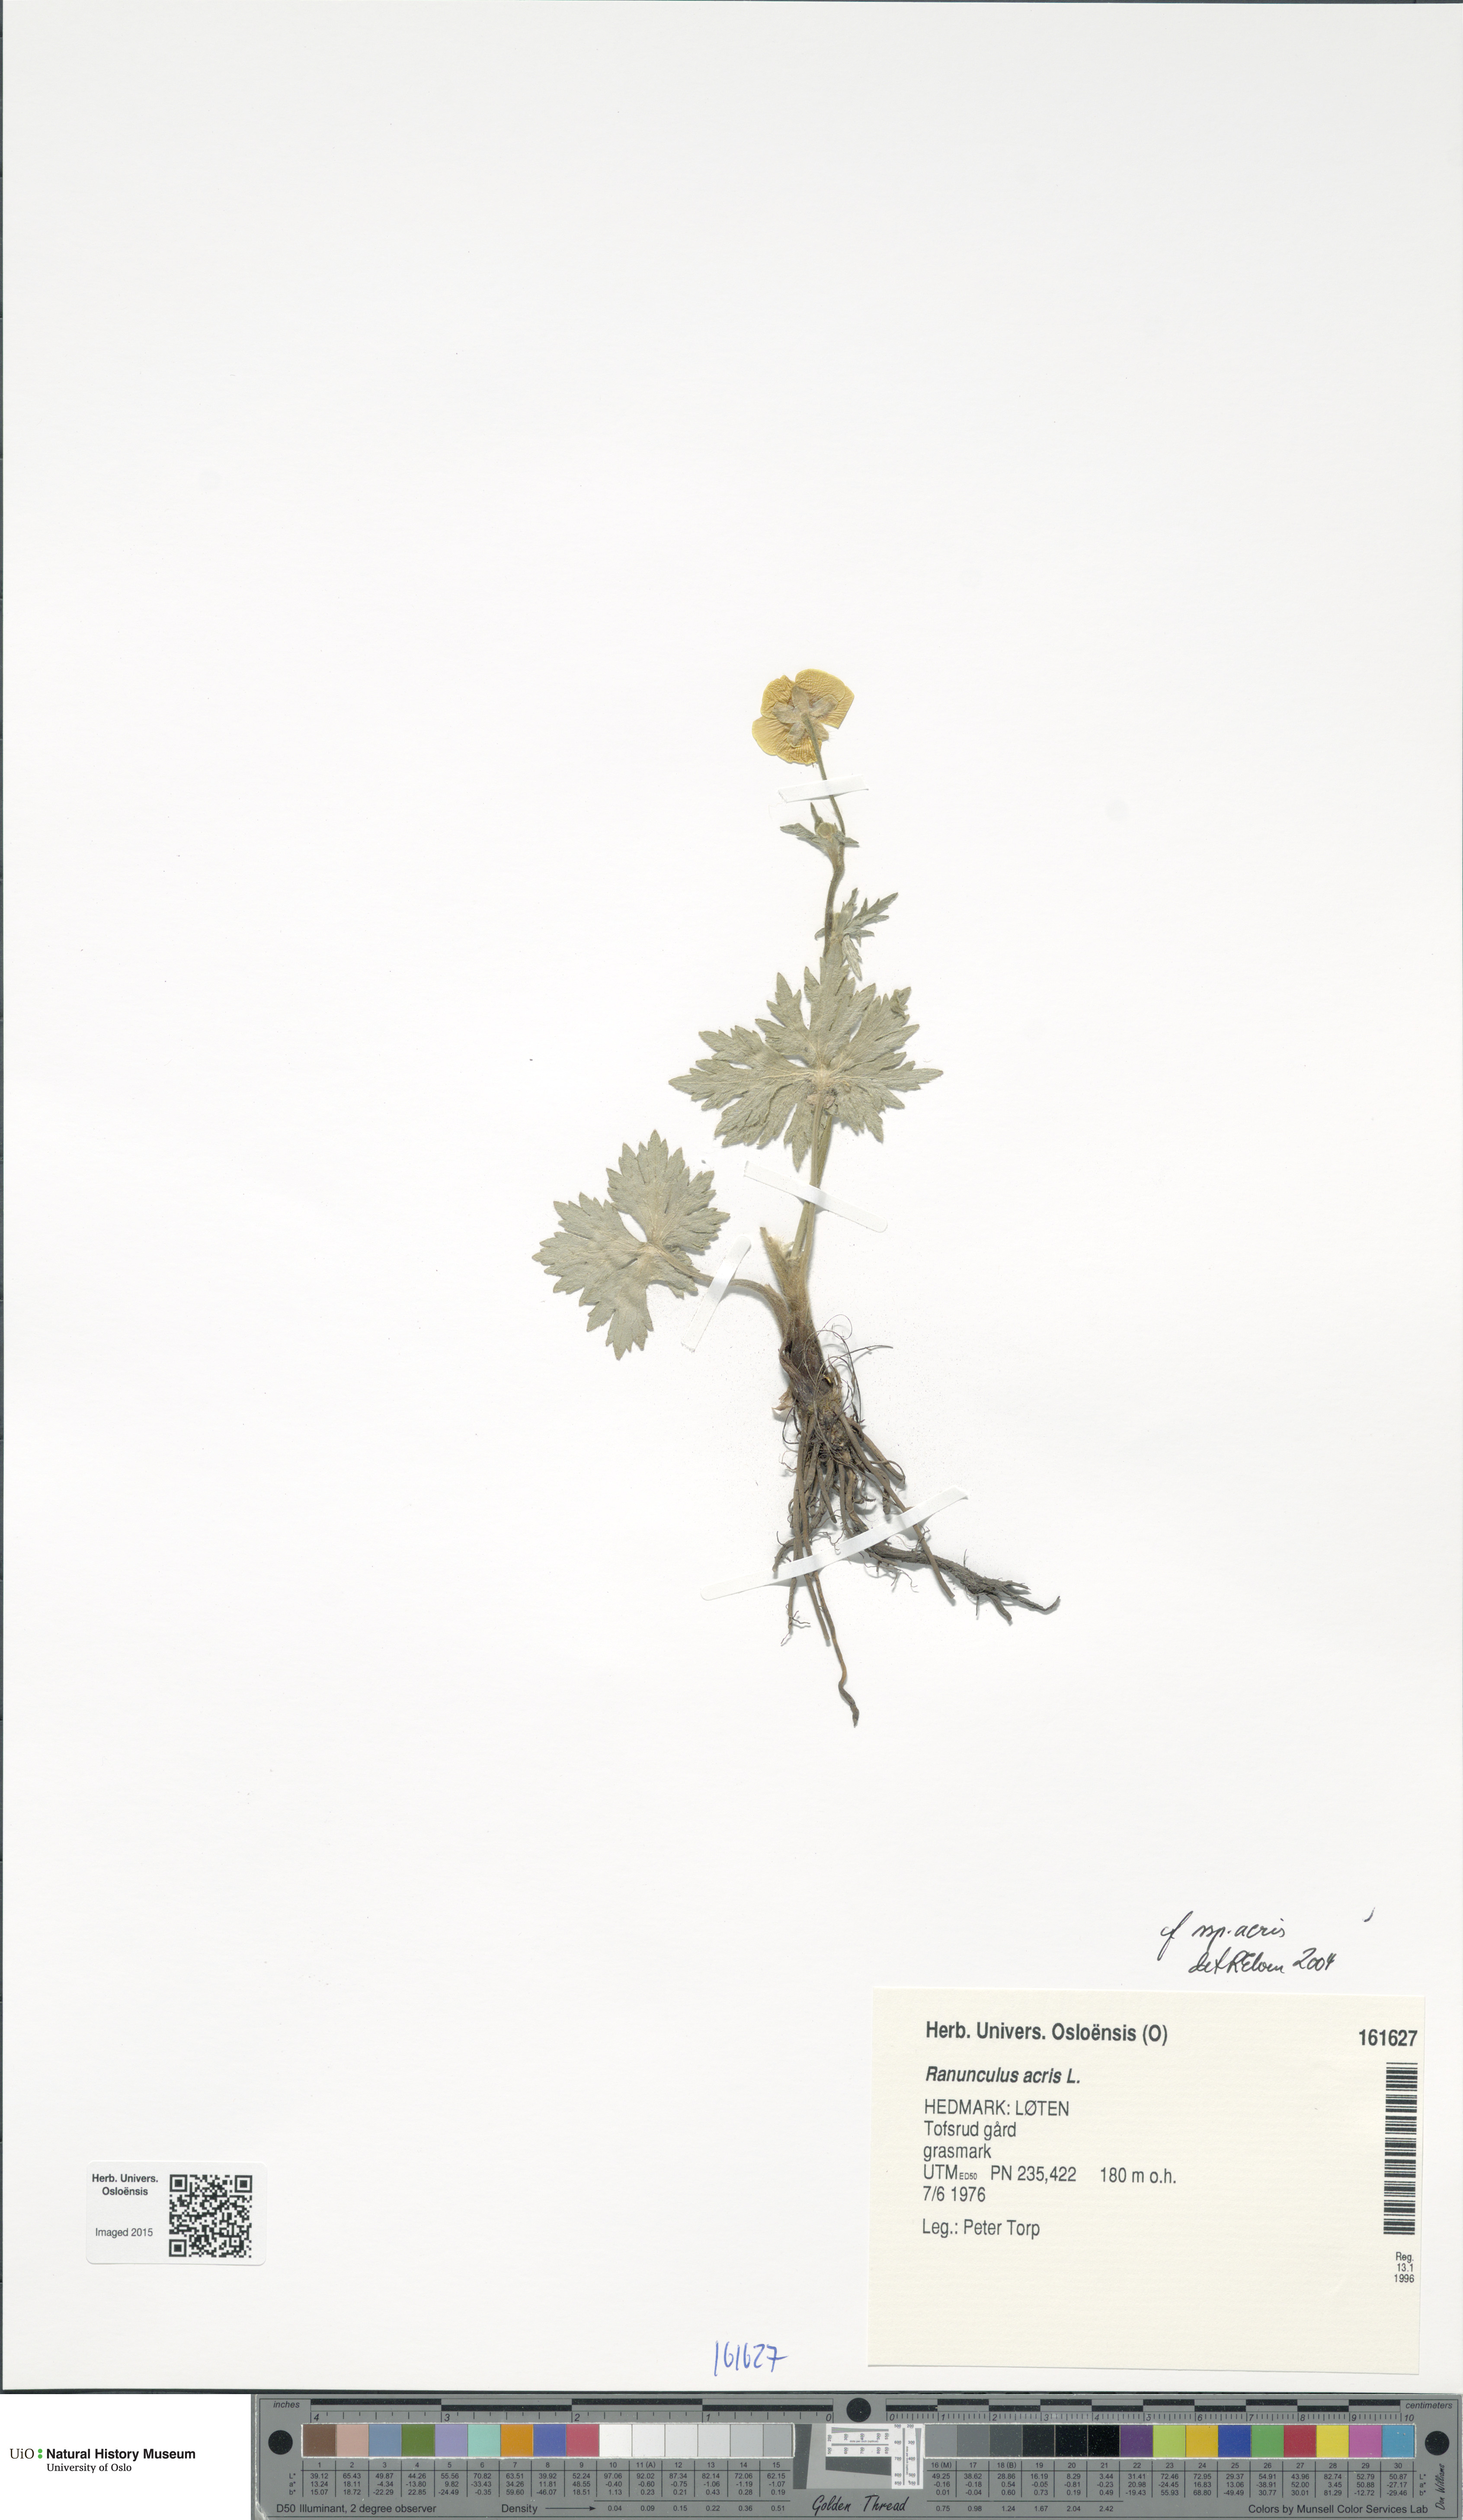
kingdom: Plantae
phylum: Tracheophyta
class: Magnoliopsida
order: Ranunculales
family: Ranunculaceae
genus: Ranunculus
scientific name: Ranunculus acris
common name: Meadow buttercup
